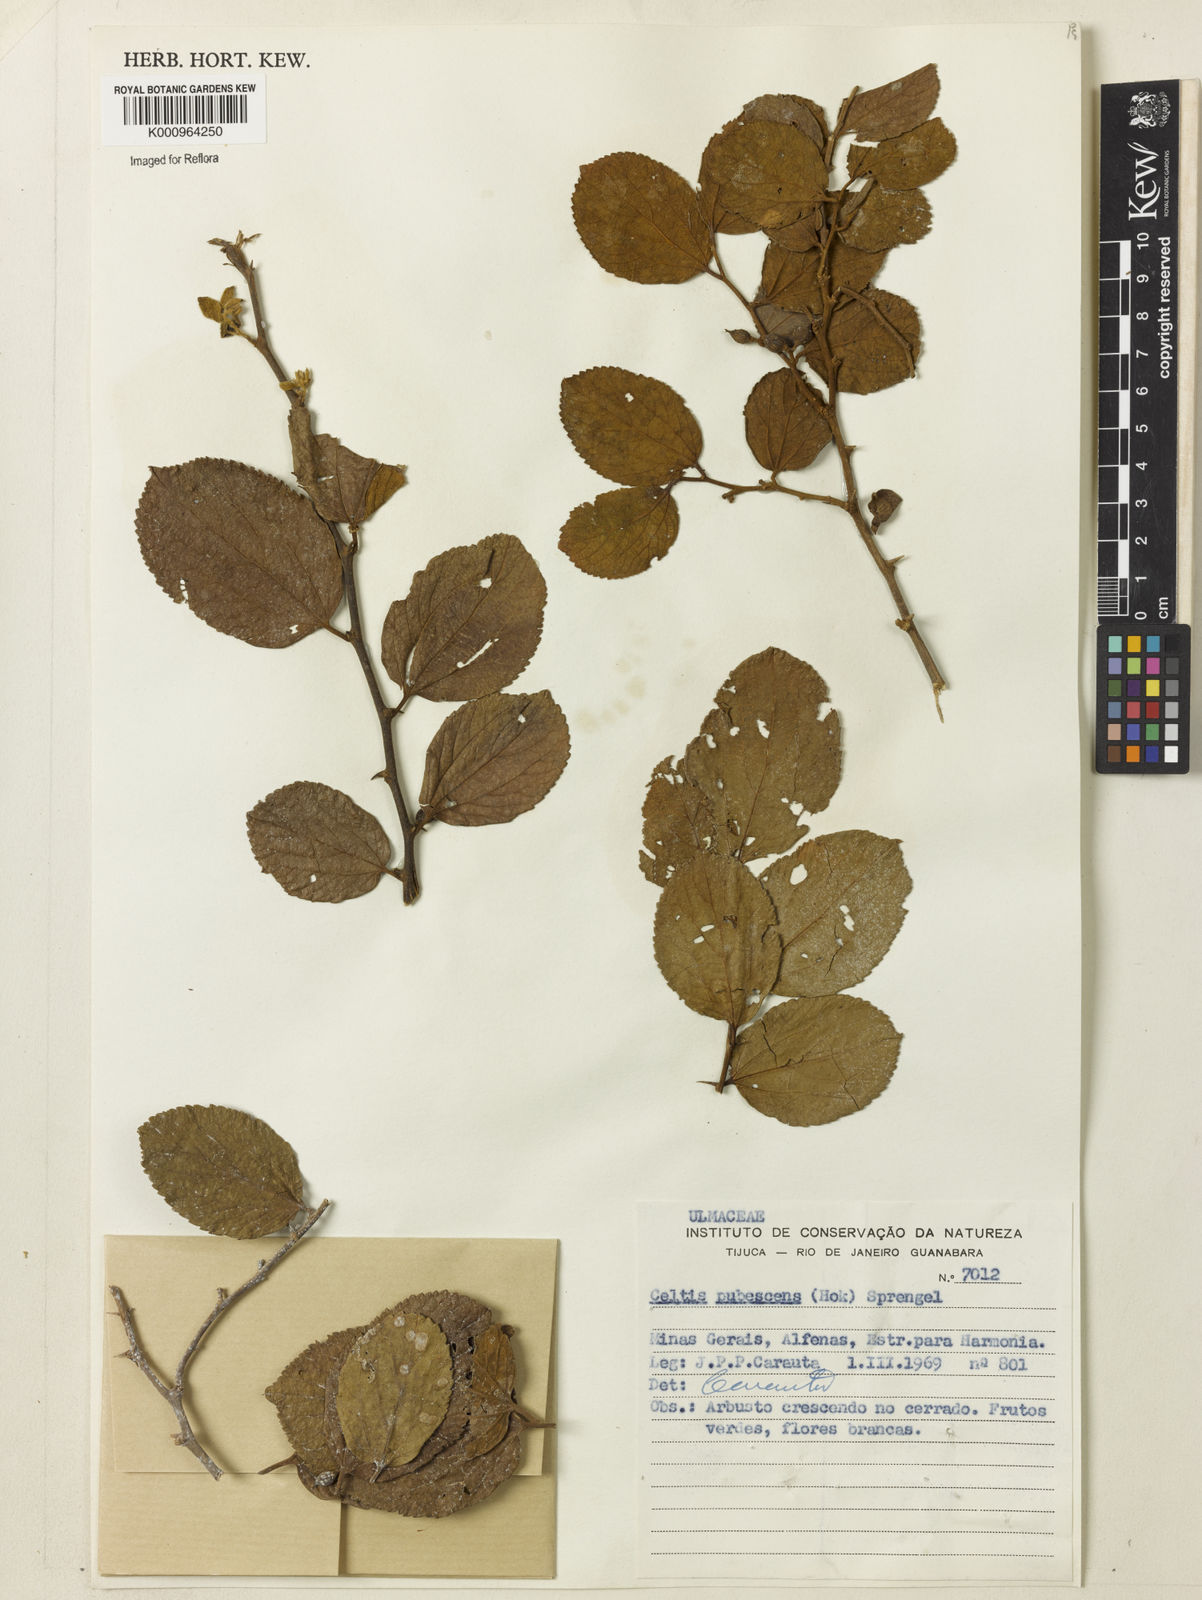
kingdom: Plantae
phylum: Tracheophyta
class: Magnoliopsida
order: Rosales
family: Cannabaceae
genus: Celtis
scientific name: Celtis iguanaea
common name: Iguana hackberry
